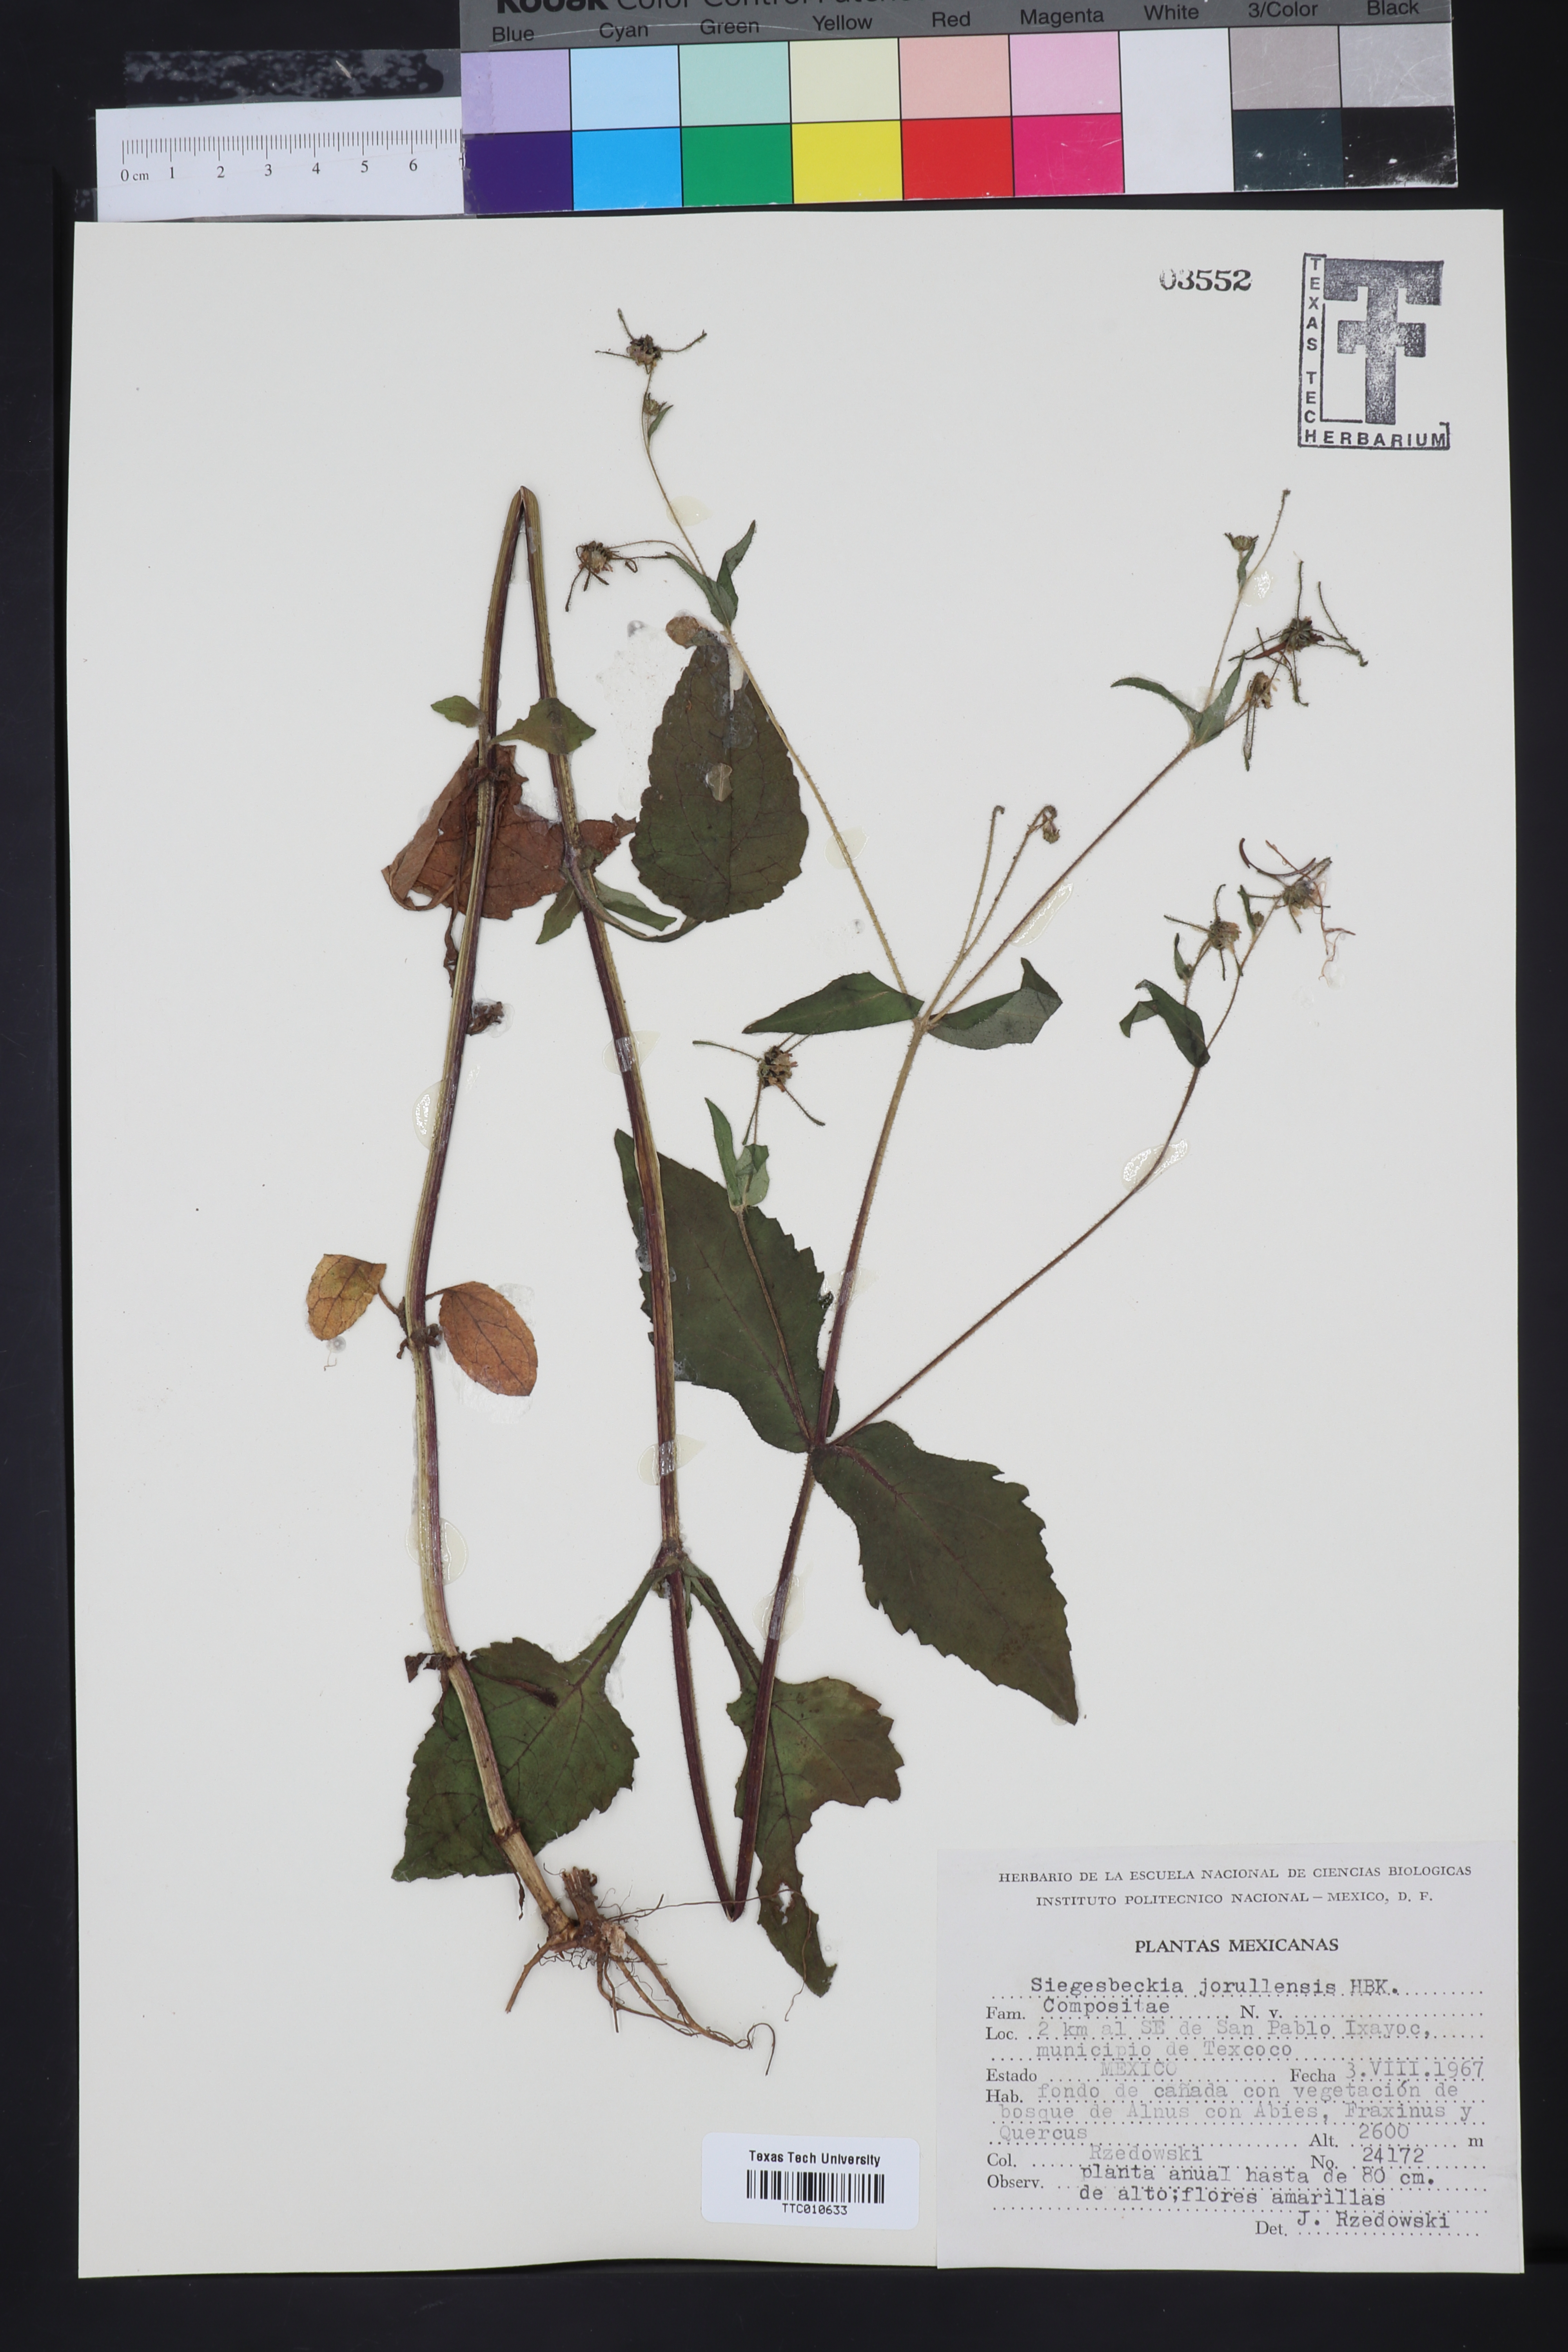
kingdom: Plantae
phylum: Tracheophyta
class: Magnoliopsida
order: Asterales
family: Asteraceae
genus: Siegesbeckia
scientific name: Siegesbeckia
